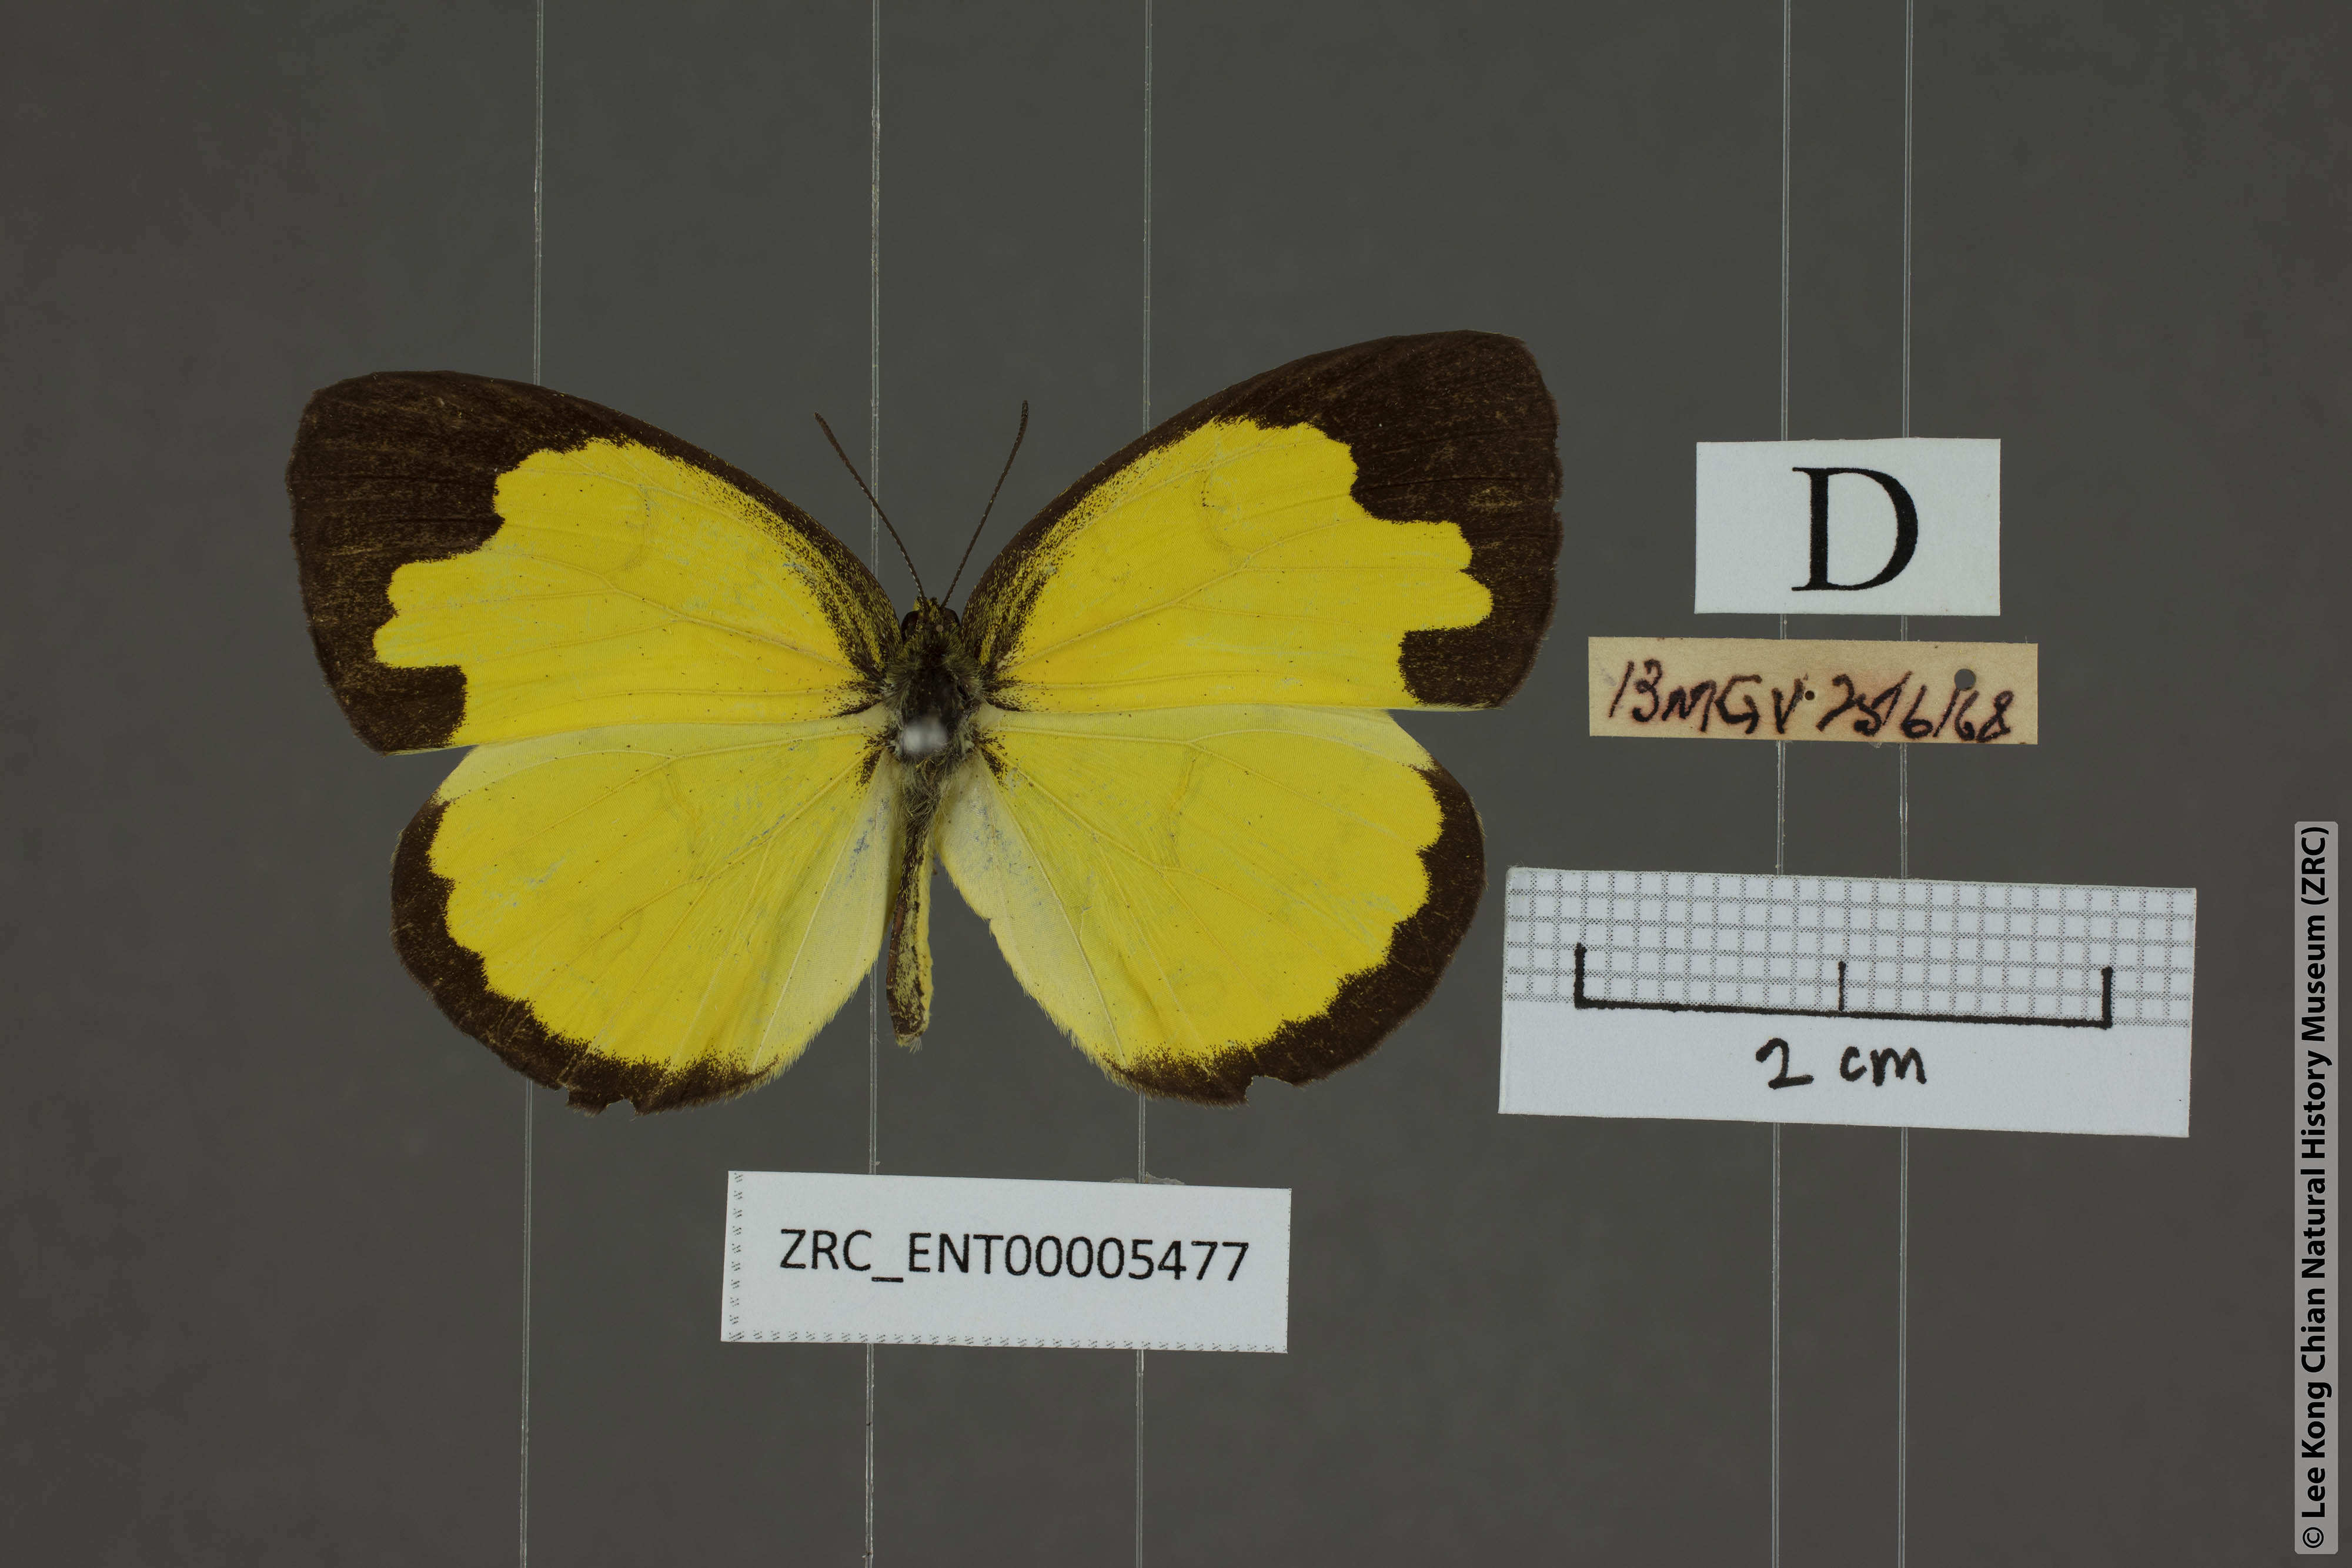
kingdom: Animalia
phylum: Arthropoda
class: Insecta
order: Lepidoptera
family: Pieridae
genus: Eurema
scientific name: Eurema simulatrix
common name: Hill grass yellow
